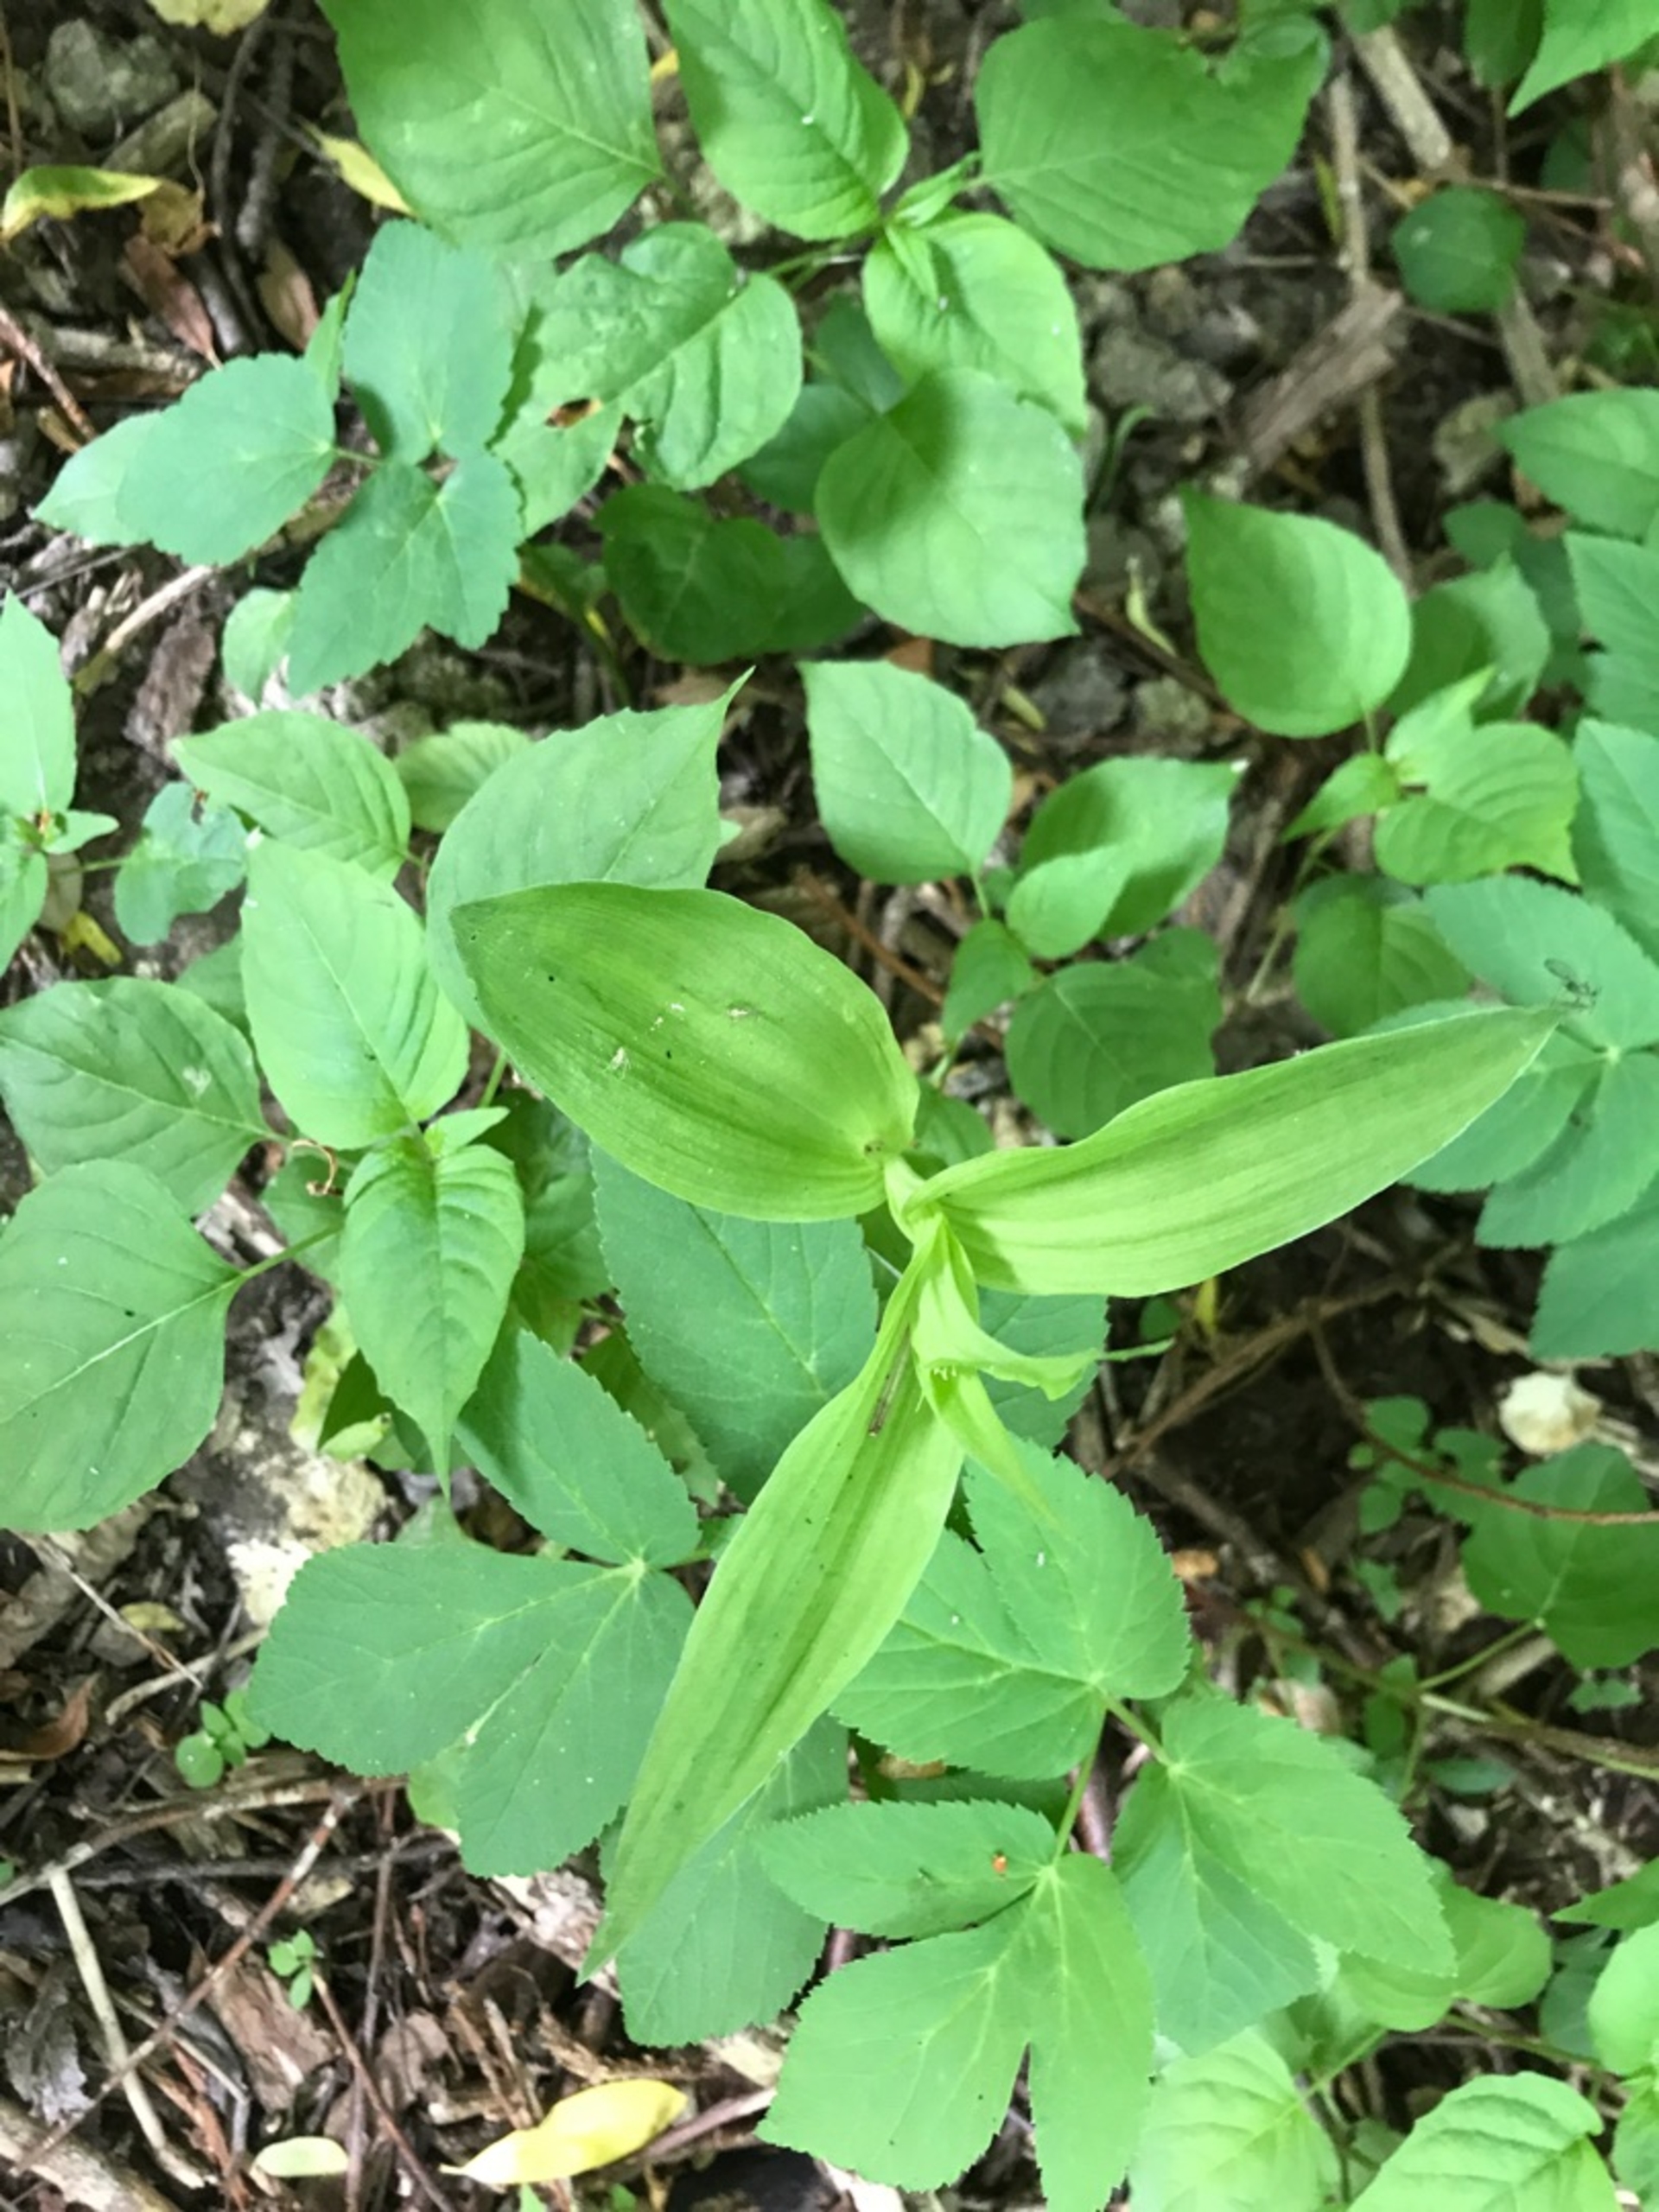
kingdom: Plantae
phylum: Tracheophyta
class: Liliopsida
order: Asparagales
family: Orchidaceae
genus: Epipactis
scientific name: Epipactis helleborine
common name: Skov-hullæbe
